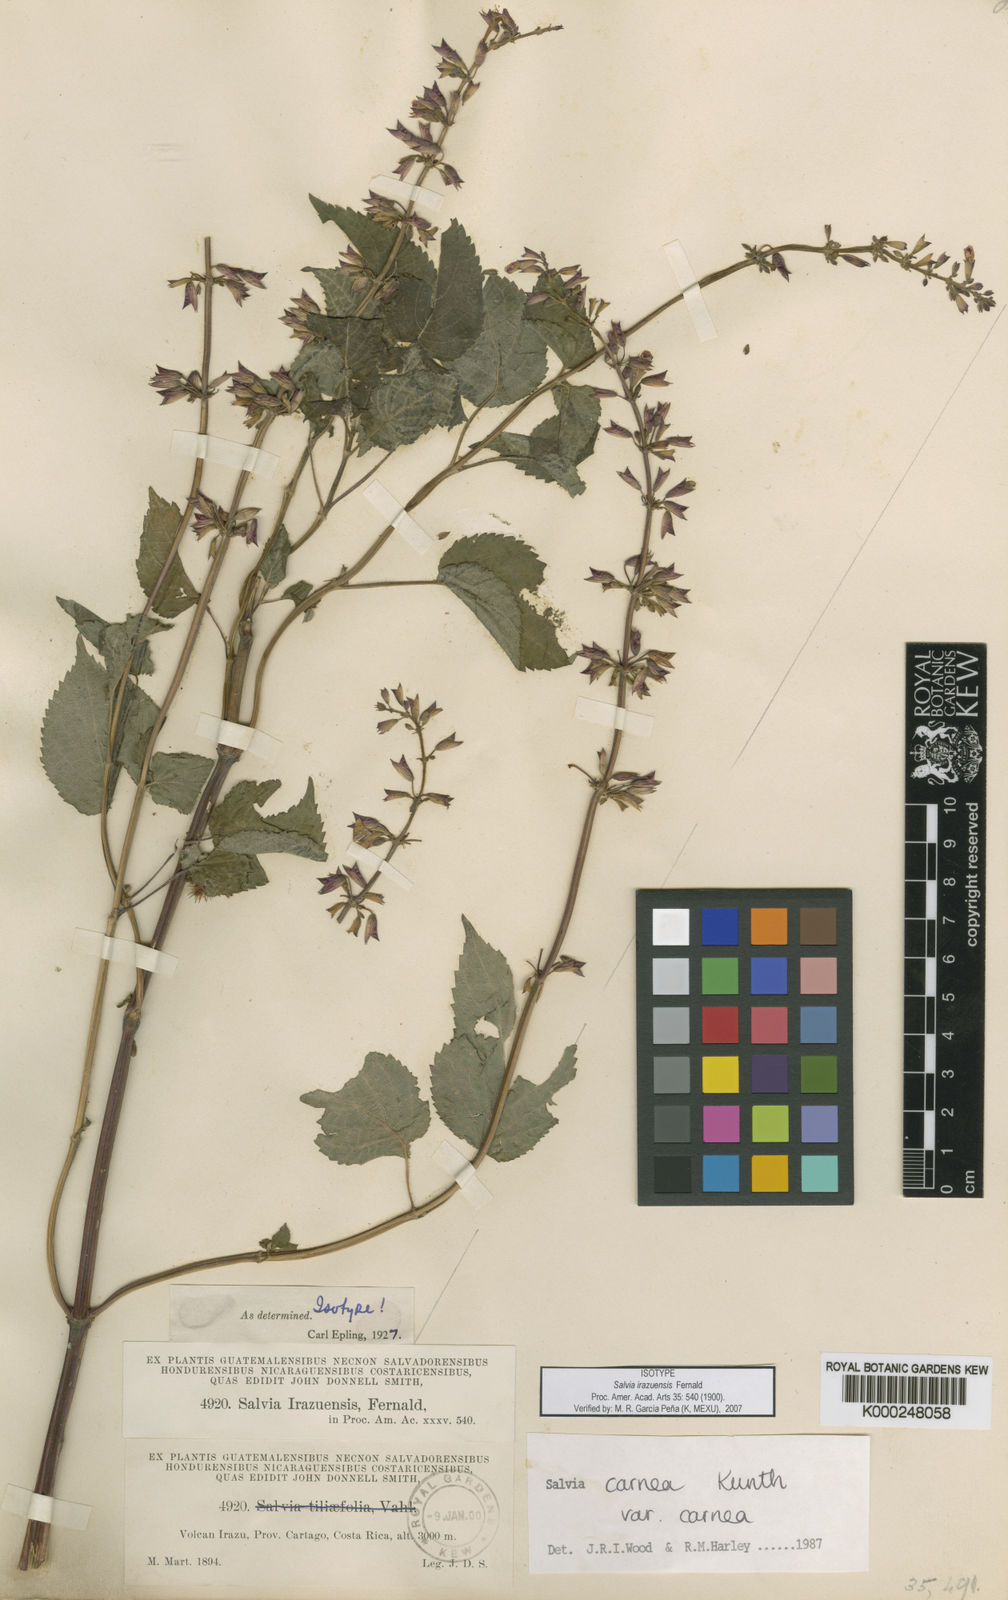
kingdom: Plantae
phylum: Tracheophyta
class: Magnoliopsida
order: Lamiales
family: Lamiaceae
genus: Salvia
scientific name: Salvia carnea
